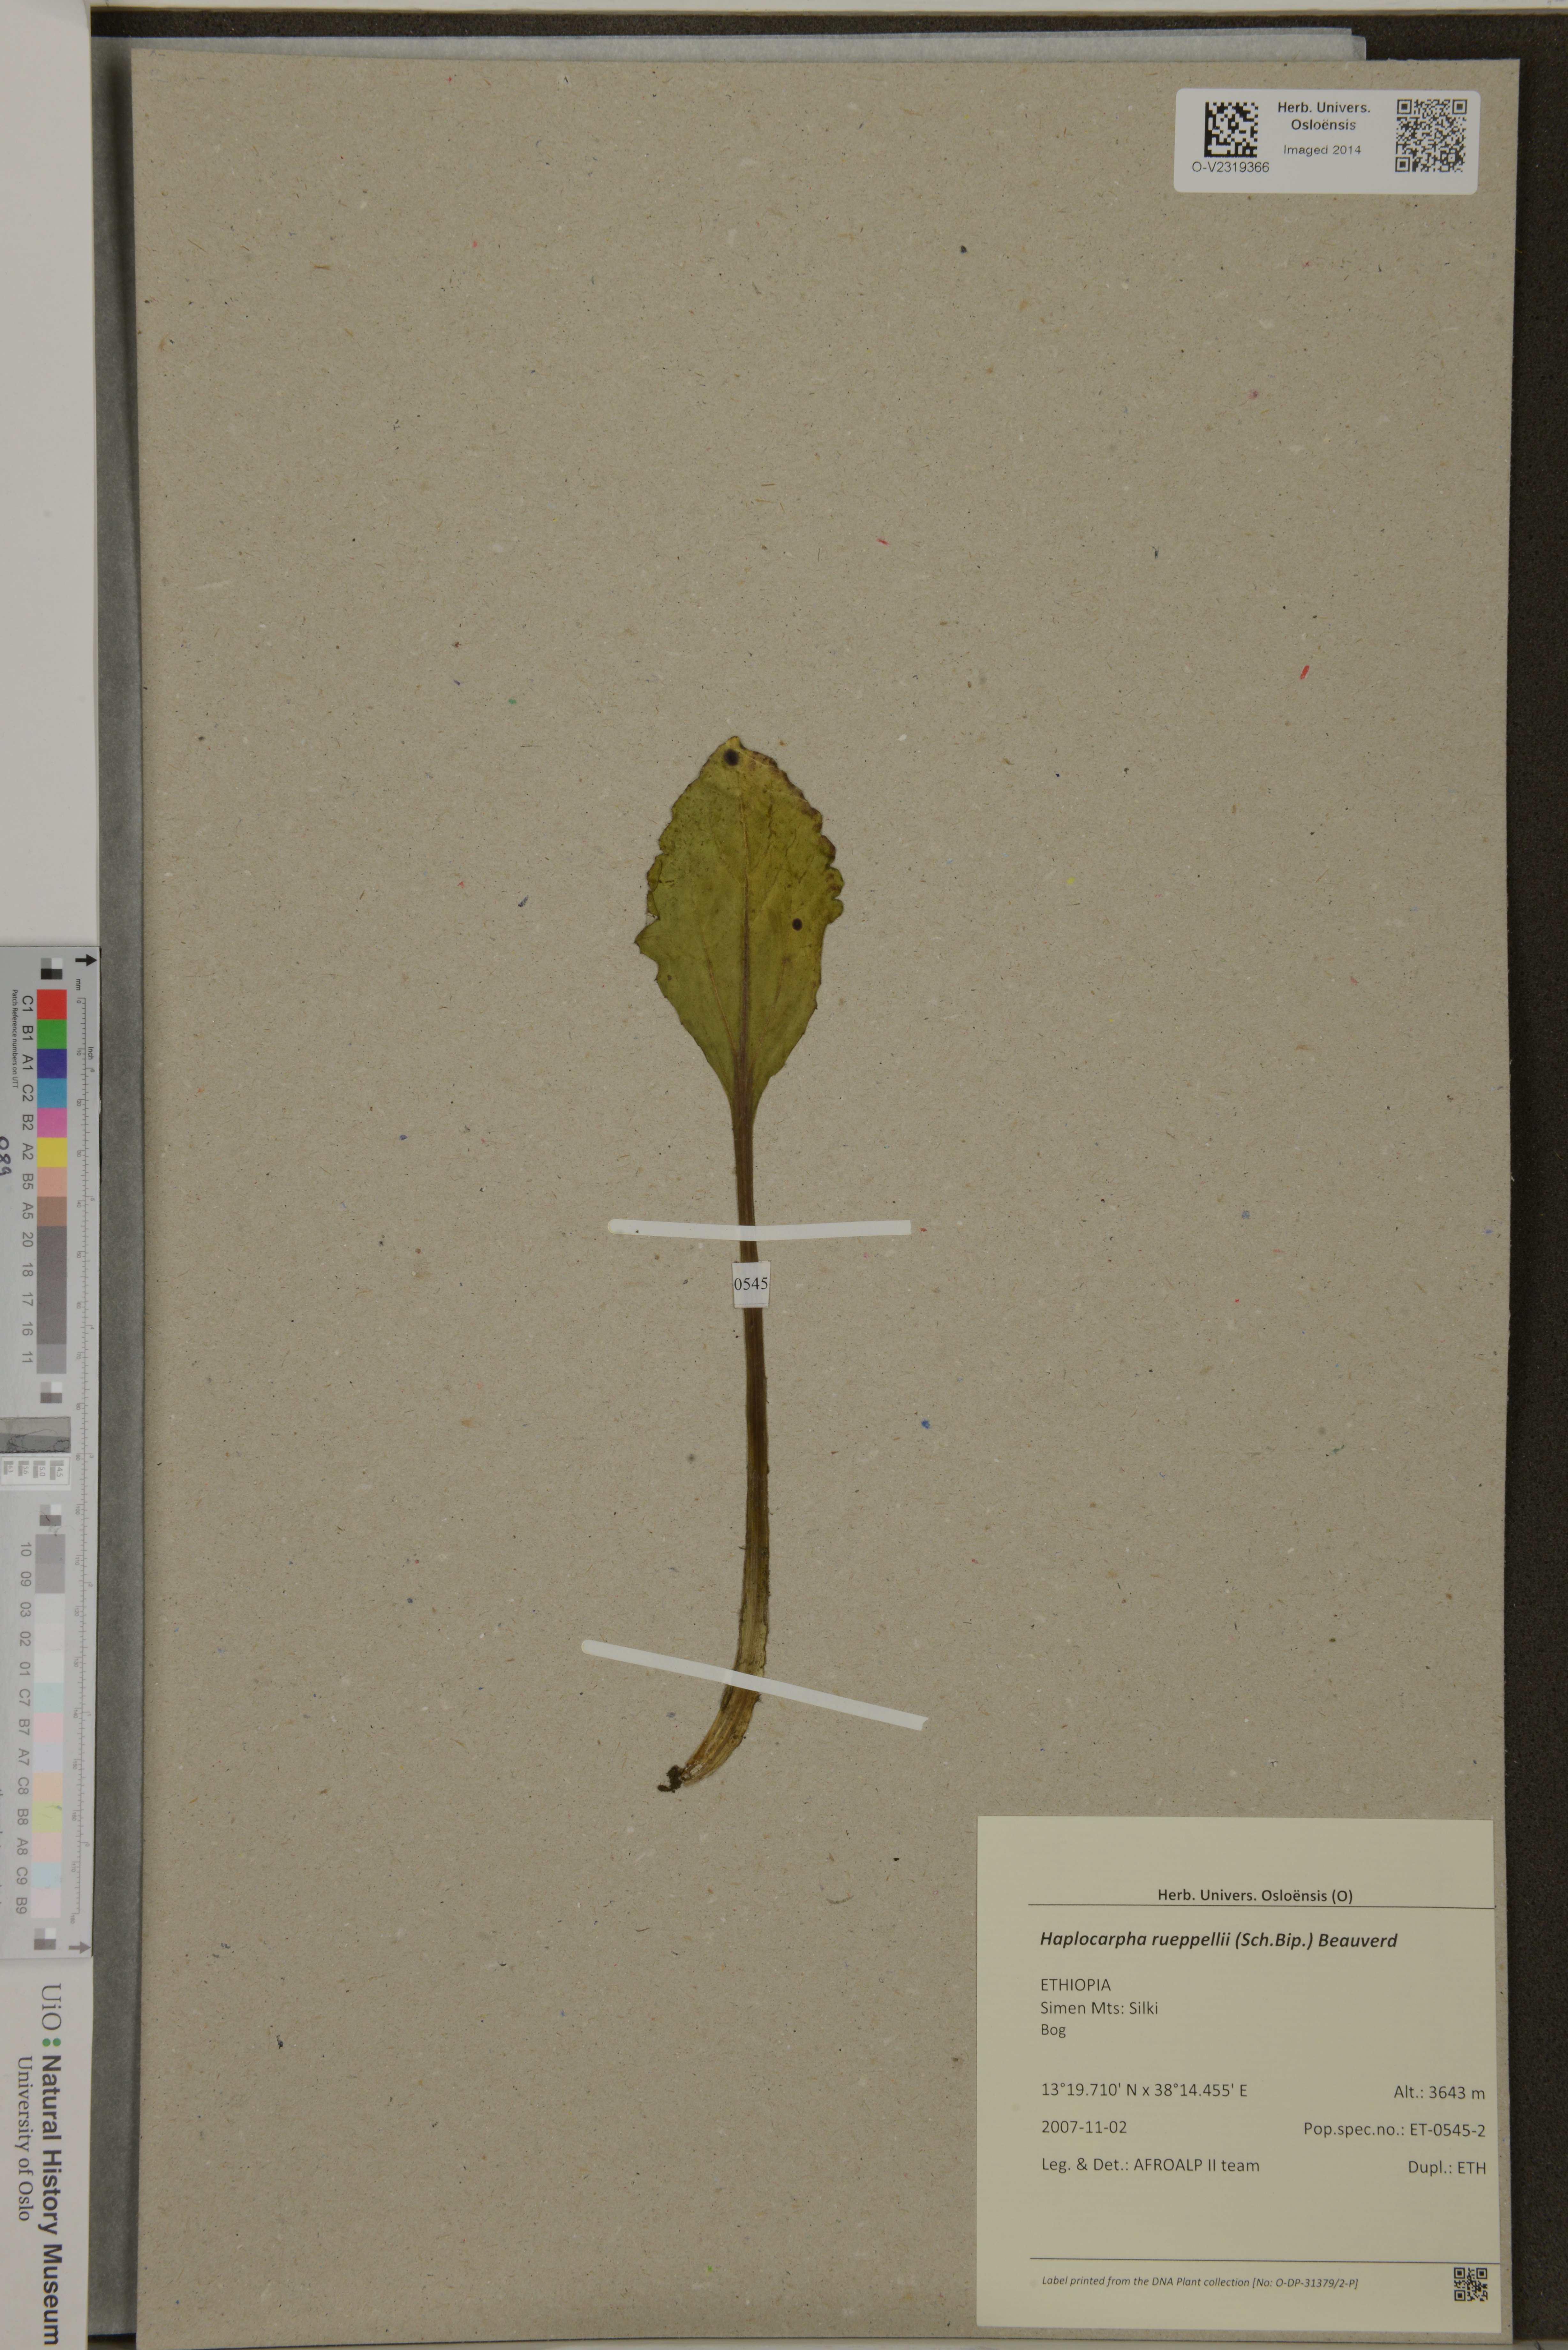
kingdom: Plantae
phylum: Tracheophyta
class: Magnoliopsida
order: Asterales
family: Asteraceae
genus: Haplocarpha
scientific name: Haplocarpha rueppelii
